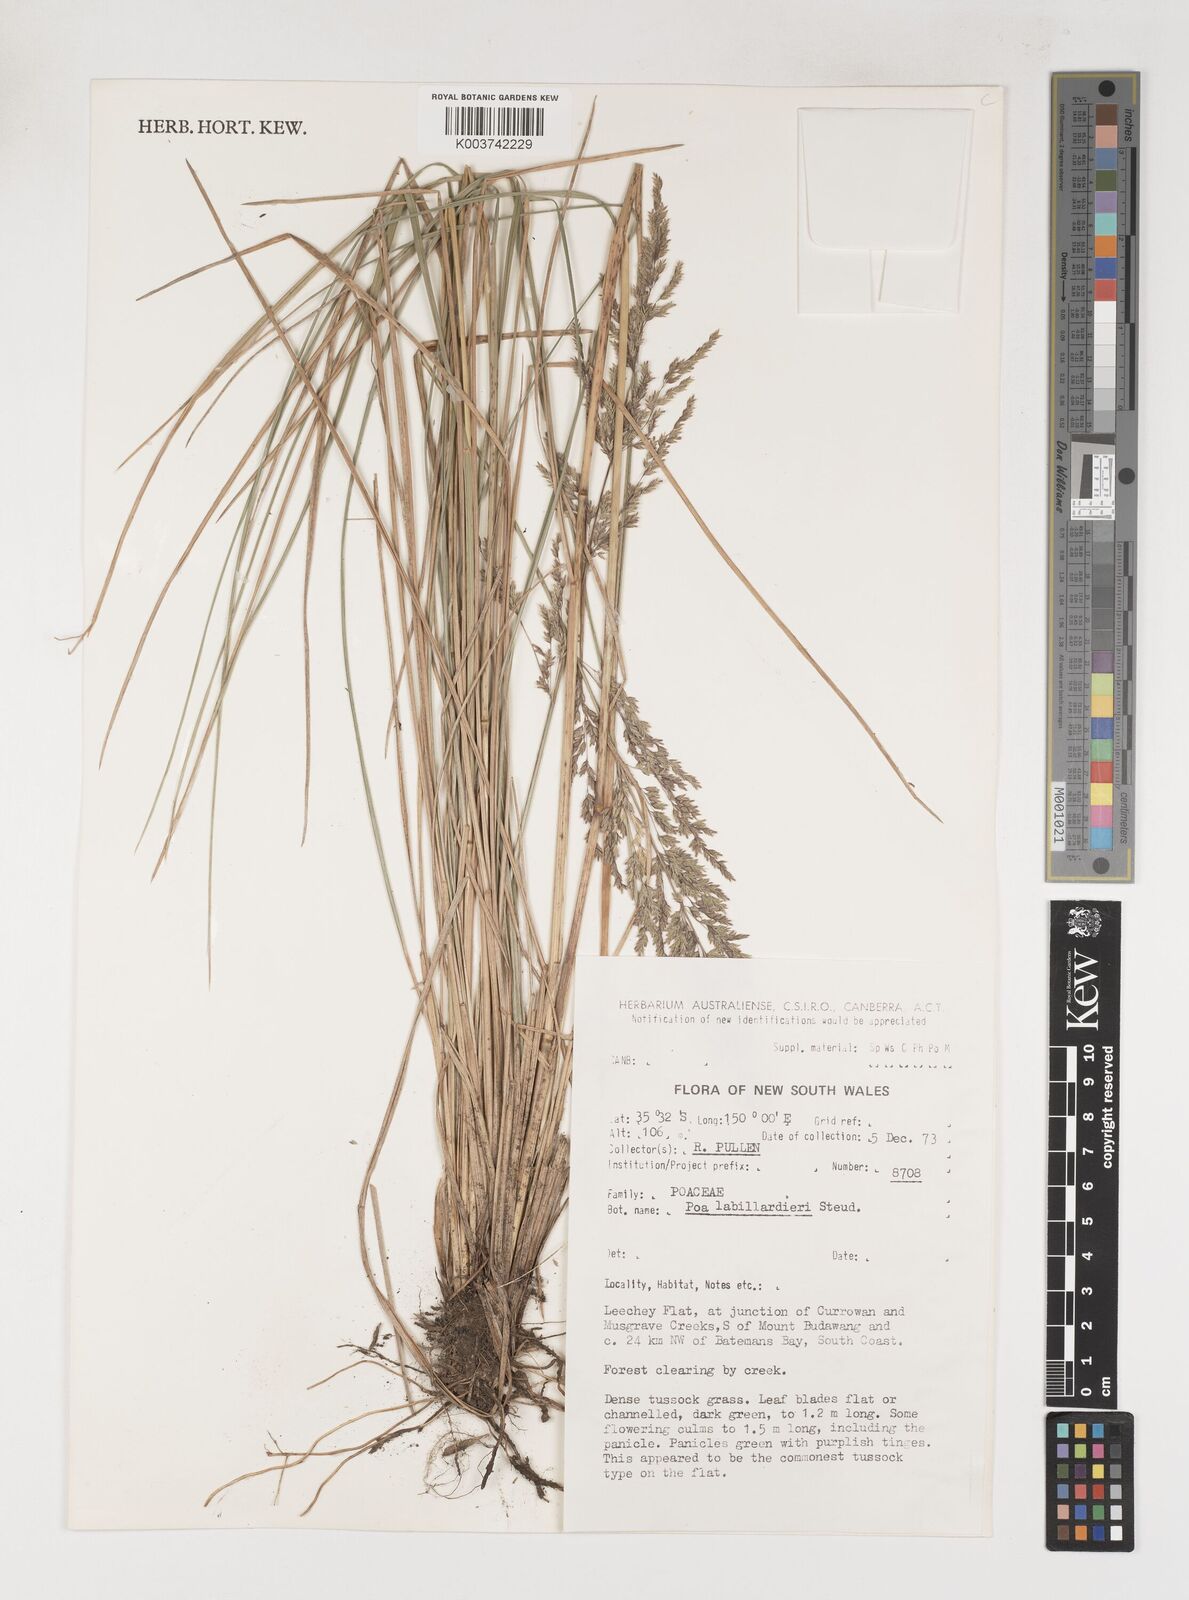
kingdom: Plantae
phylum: Tracheophyta
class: Liliopsida
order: Poales
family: Poaceae
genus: Poa
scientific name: Poa labillardierei
